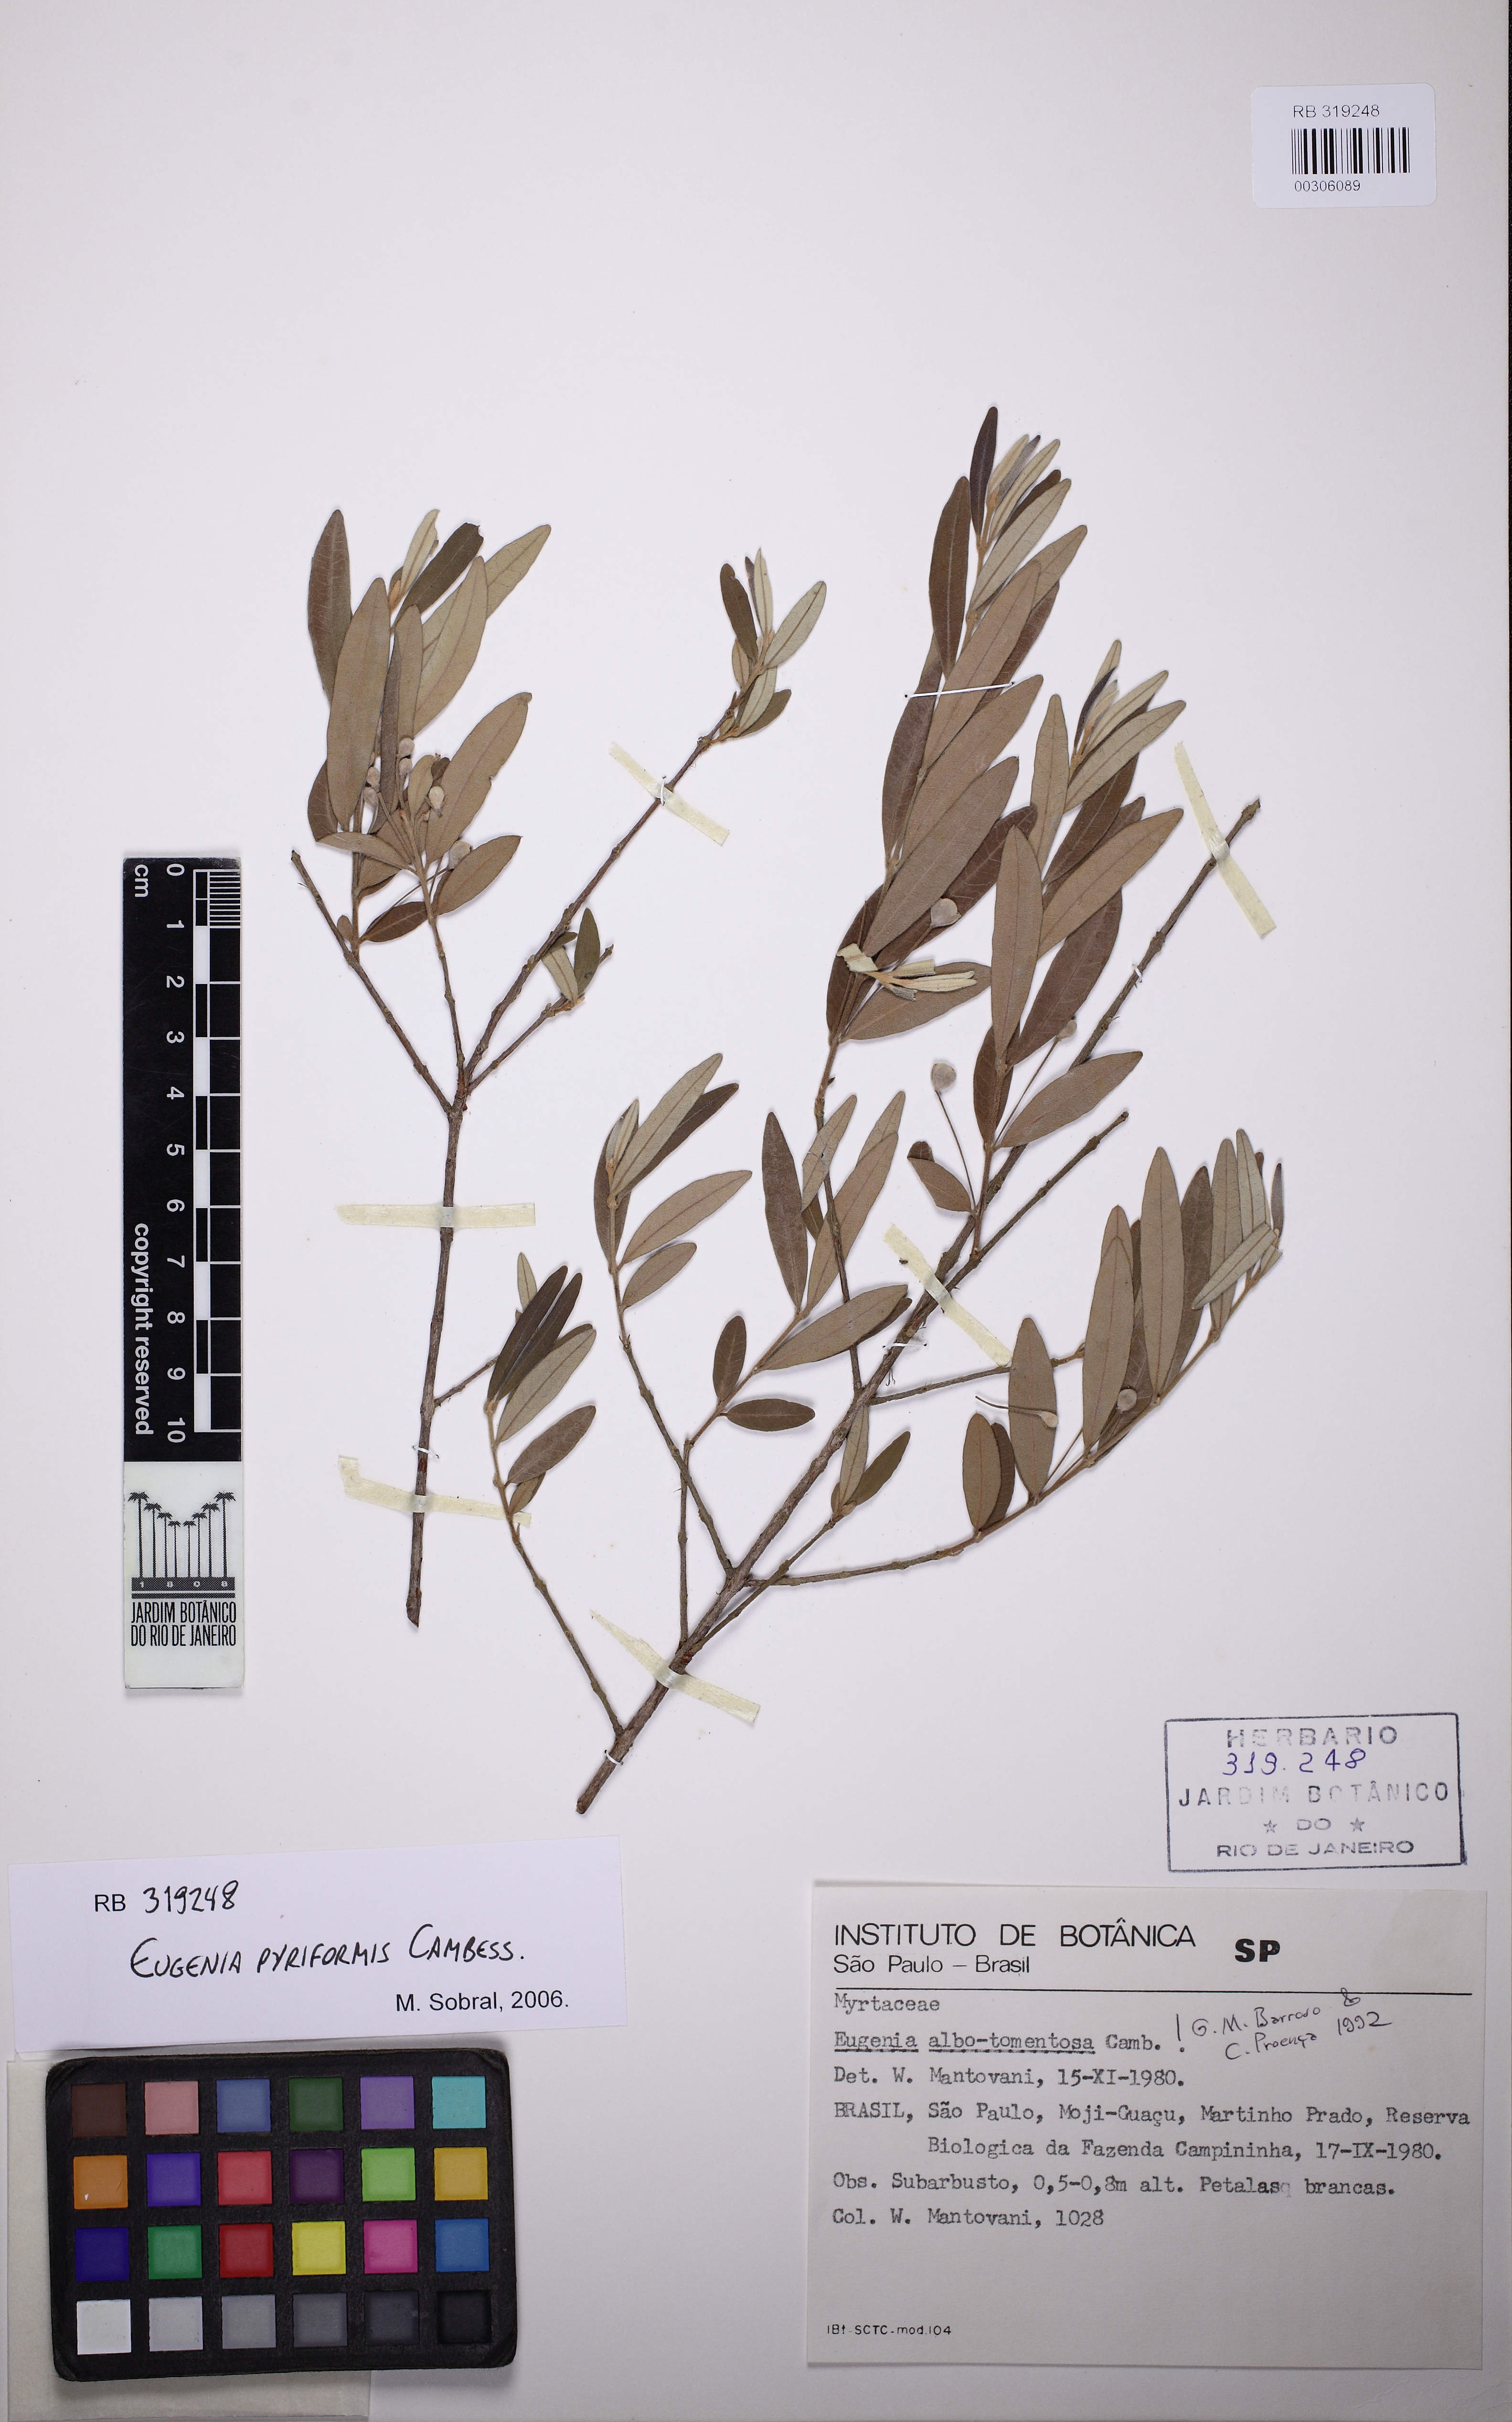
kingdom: Plantae
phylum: Tracheophyta
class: Magnoliopsida
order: Myrtales
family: Myrtaceae
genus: Eugenia
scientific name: Eugenia pyriformis
